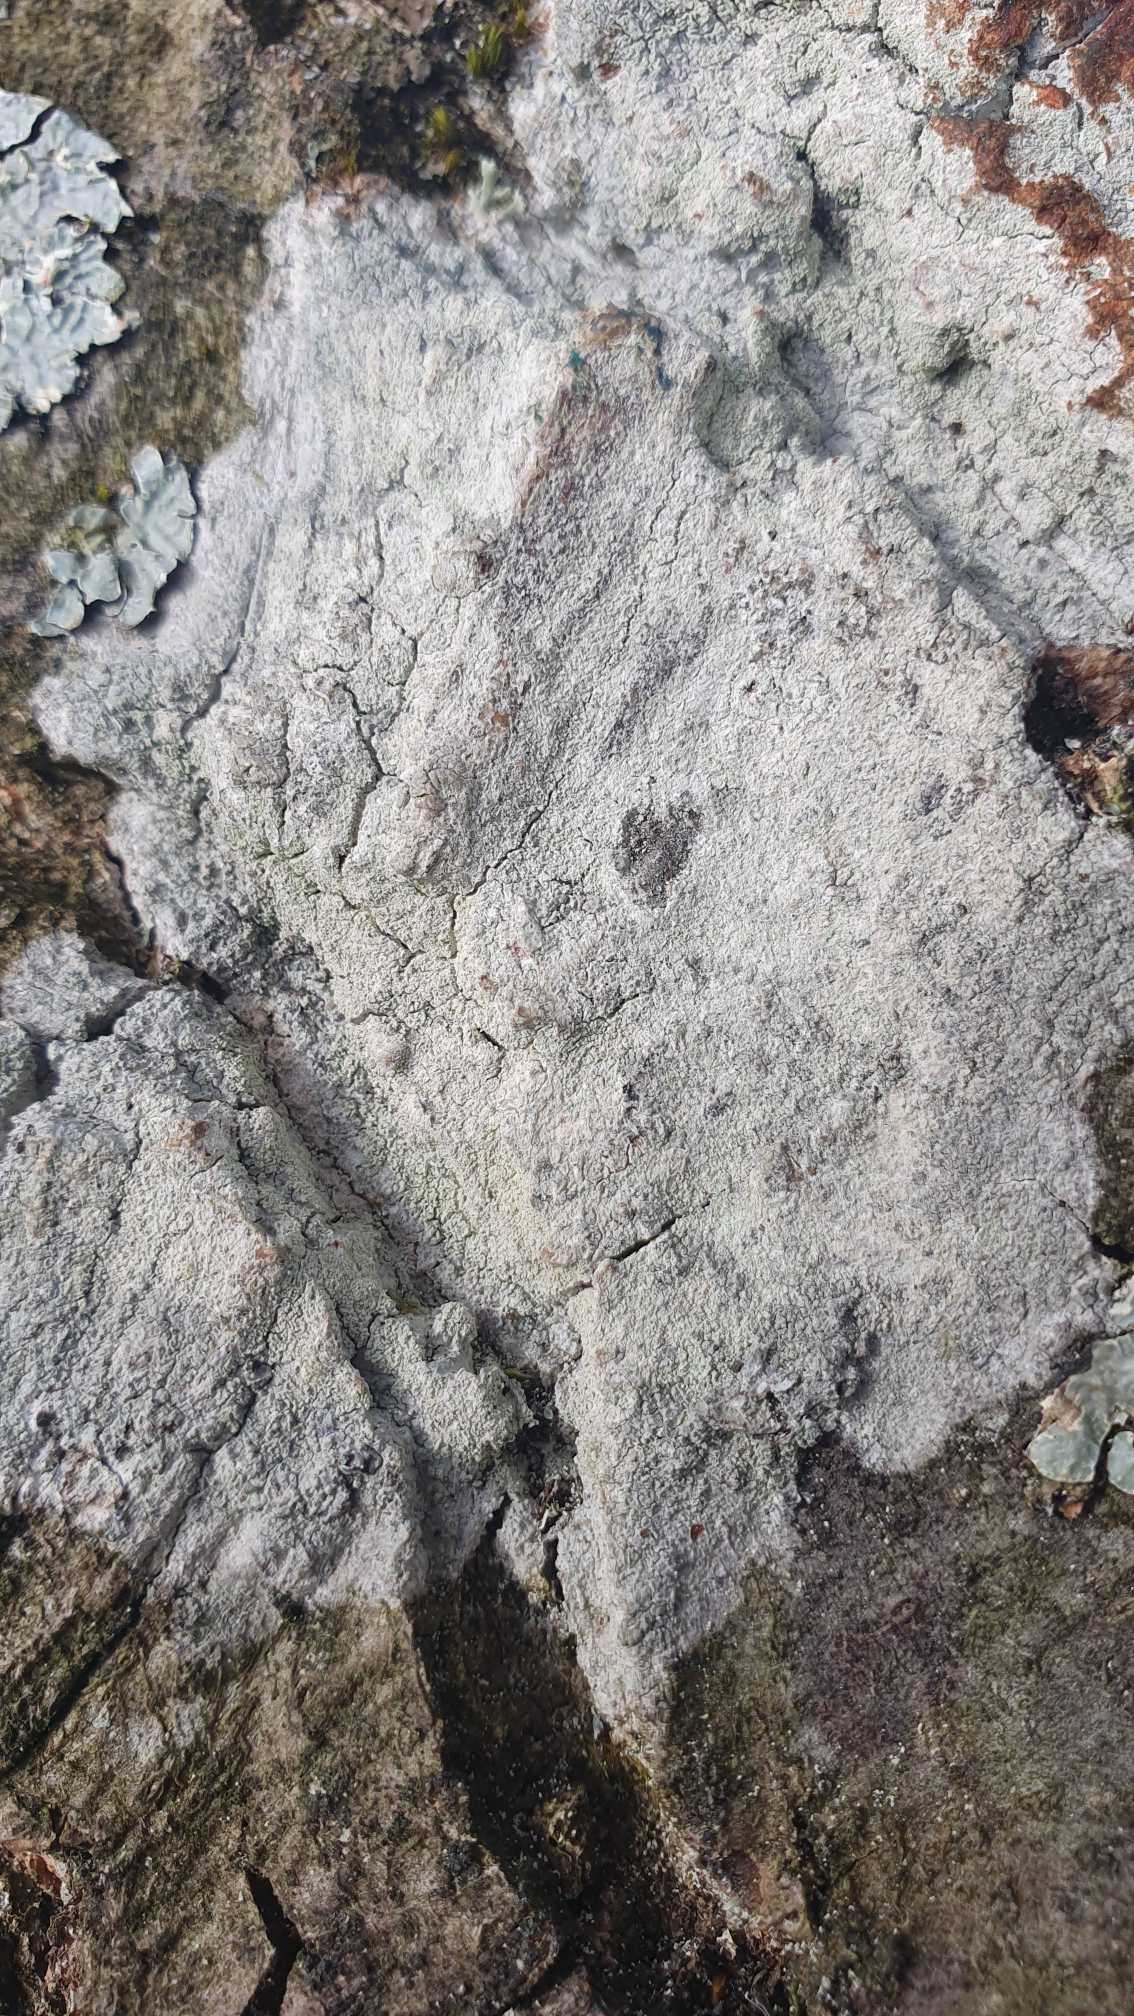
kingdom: Fungi
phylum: Ascomycota
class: Lecanoromycetes
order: Ostropales
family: Phlyctidaceae
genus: Phlyctis
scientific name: Phlyctis argena
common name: Almindelig sølvlav
